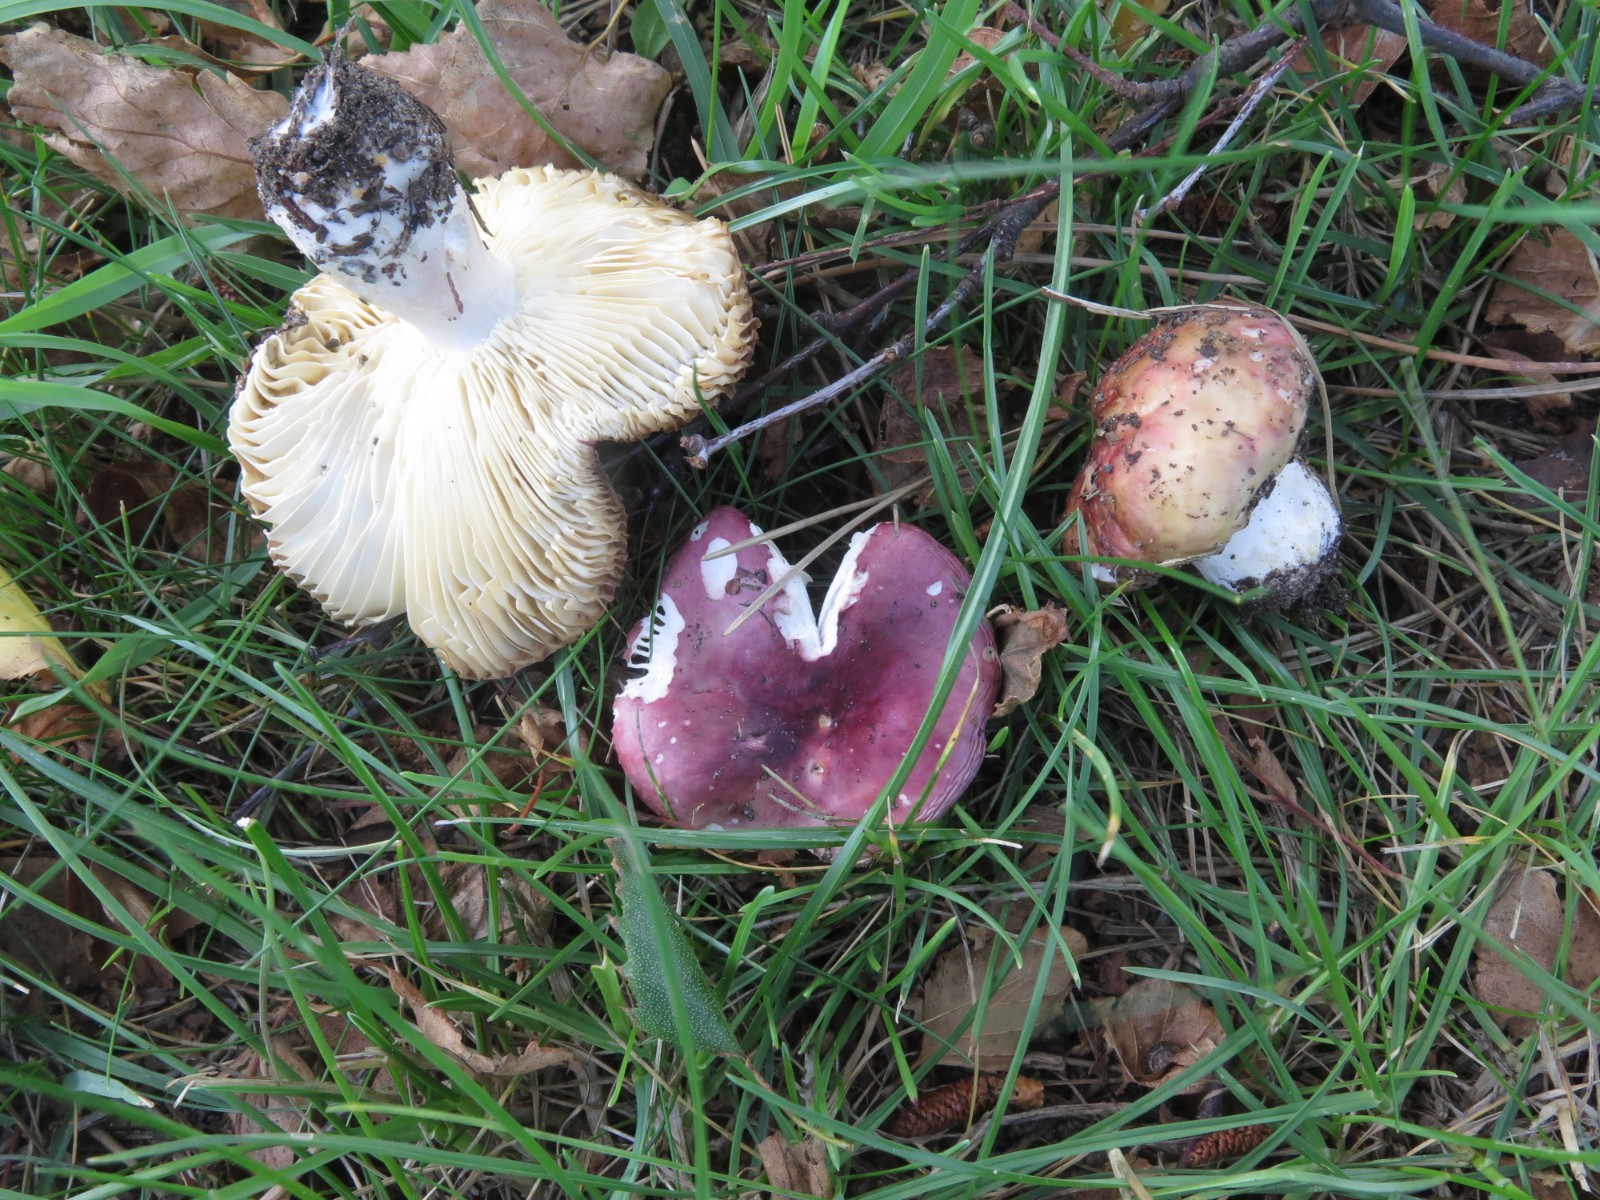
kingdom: Fungi
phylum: Basidiomycota
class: Agaricomycetes
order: Russulales
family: Russulaceae
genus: Russula
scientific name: Russula depallens
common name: falmende skørhat
